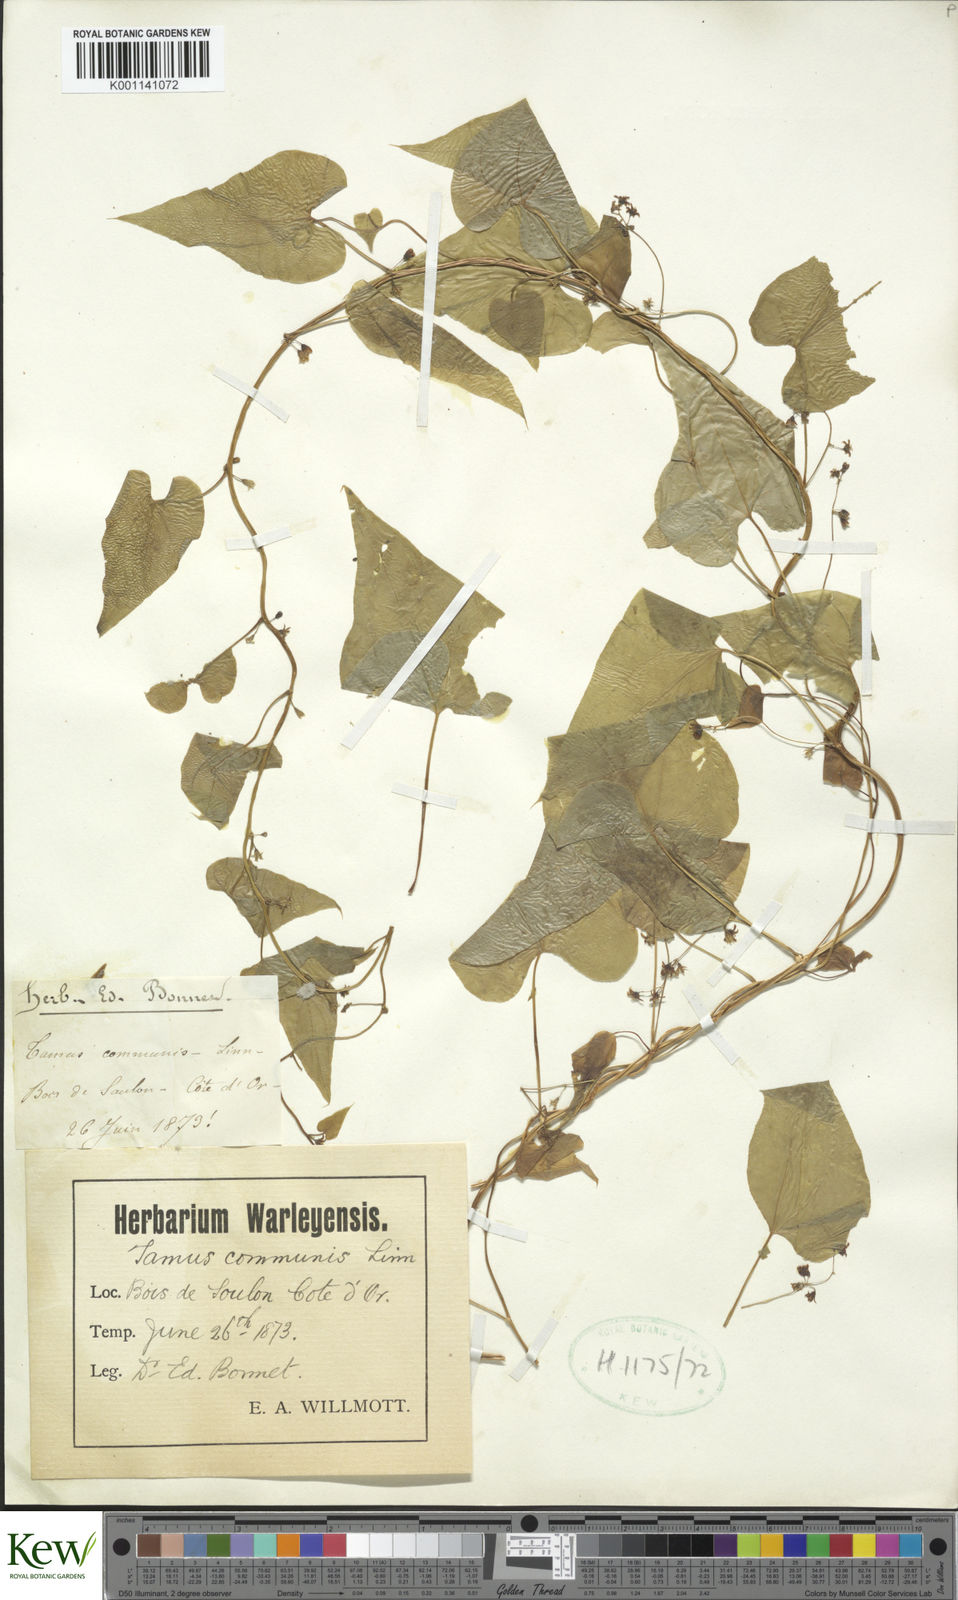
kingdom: Plantae
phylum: Tracheophyta
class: Liliopsida
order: Dioscoreales
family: Dioscoreaceae
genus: Dioscorea
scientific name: Dioscorea communis
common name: Black-bindweed
